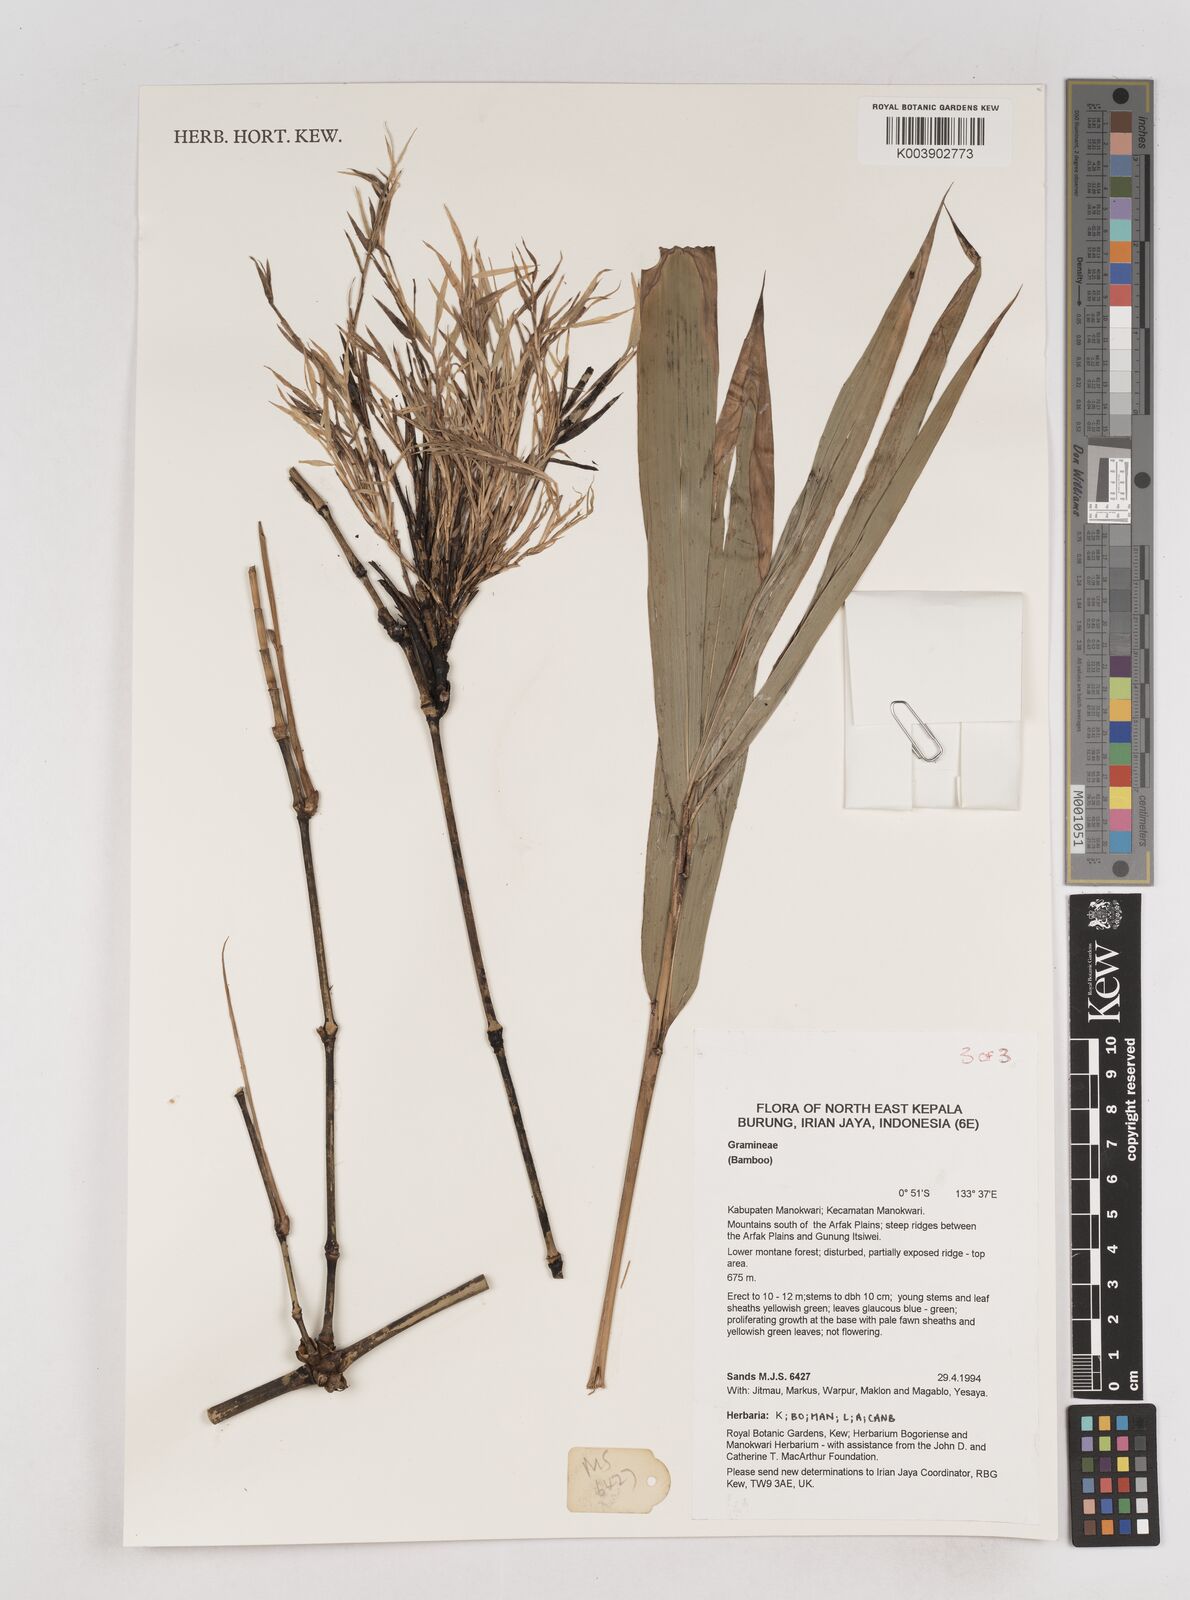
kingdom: Plantae
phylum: Tracheophyta
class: Liliopsida
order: Poales
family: Poaceae
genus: Schizostachyum
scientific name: Schizostachyum
